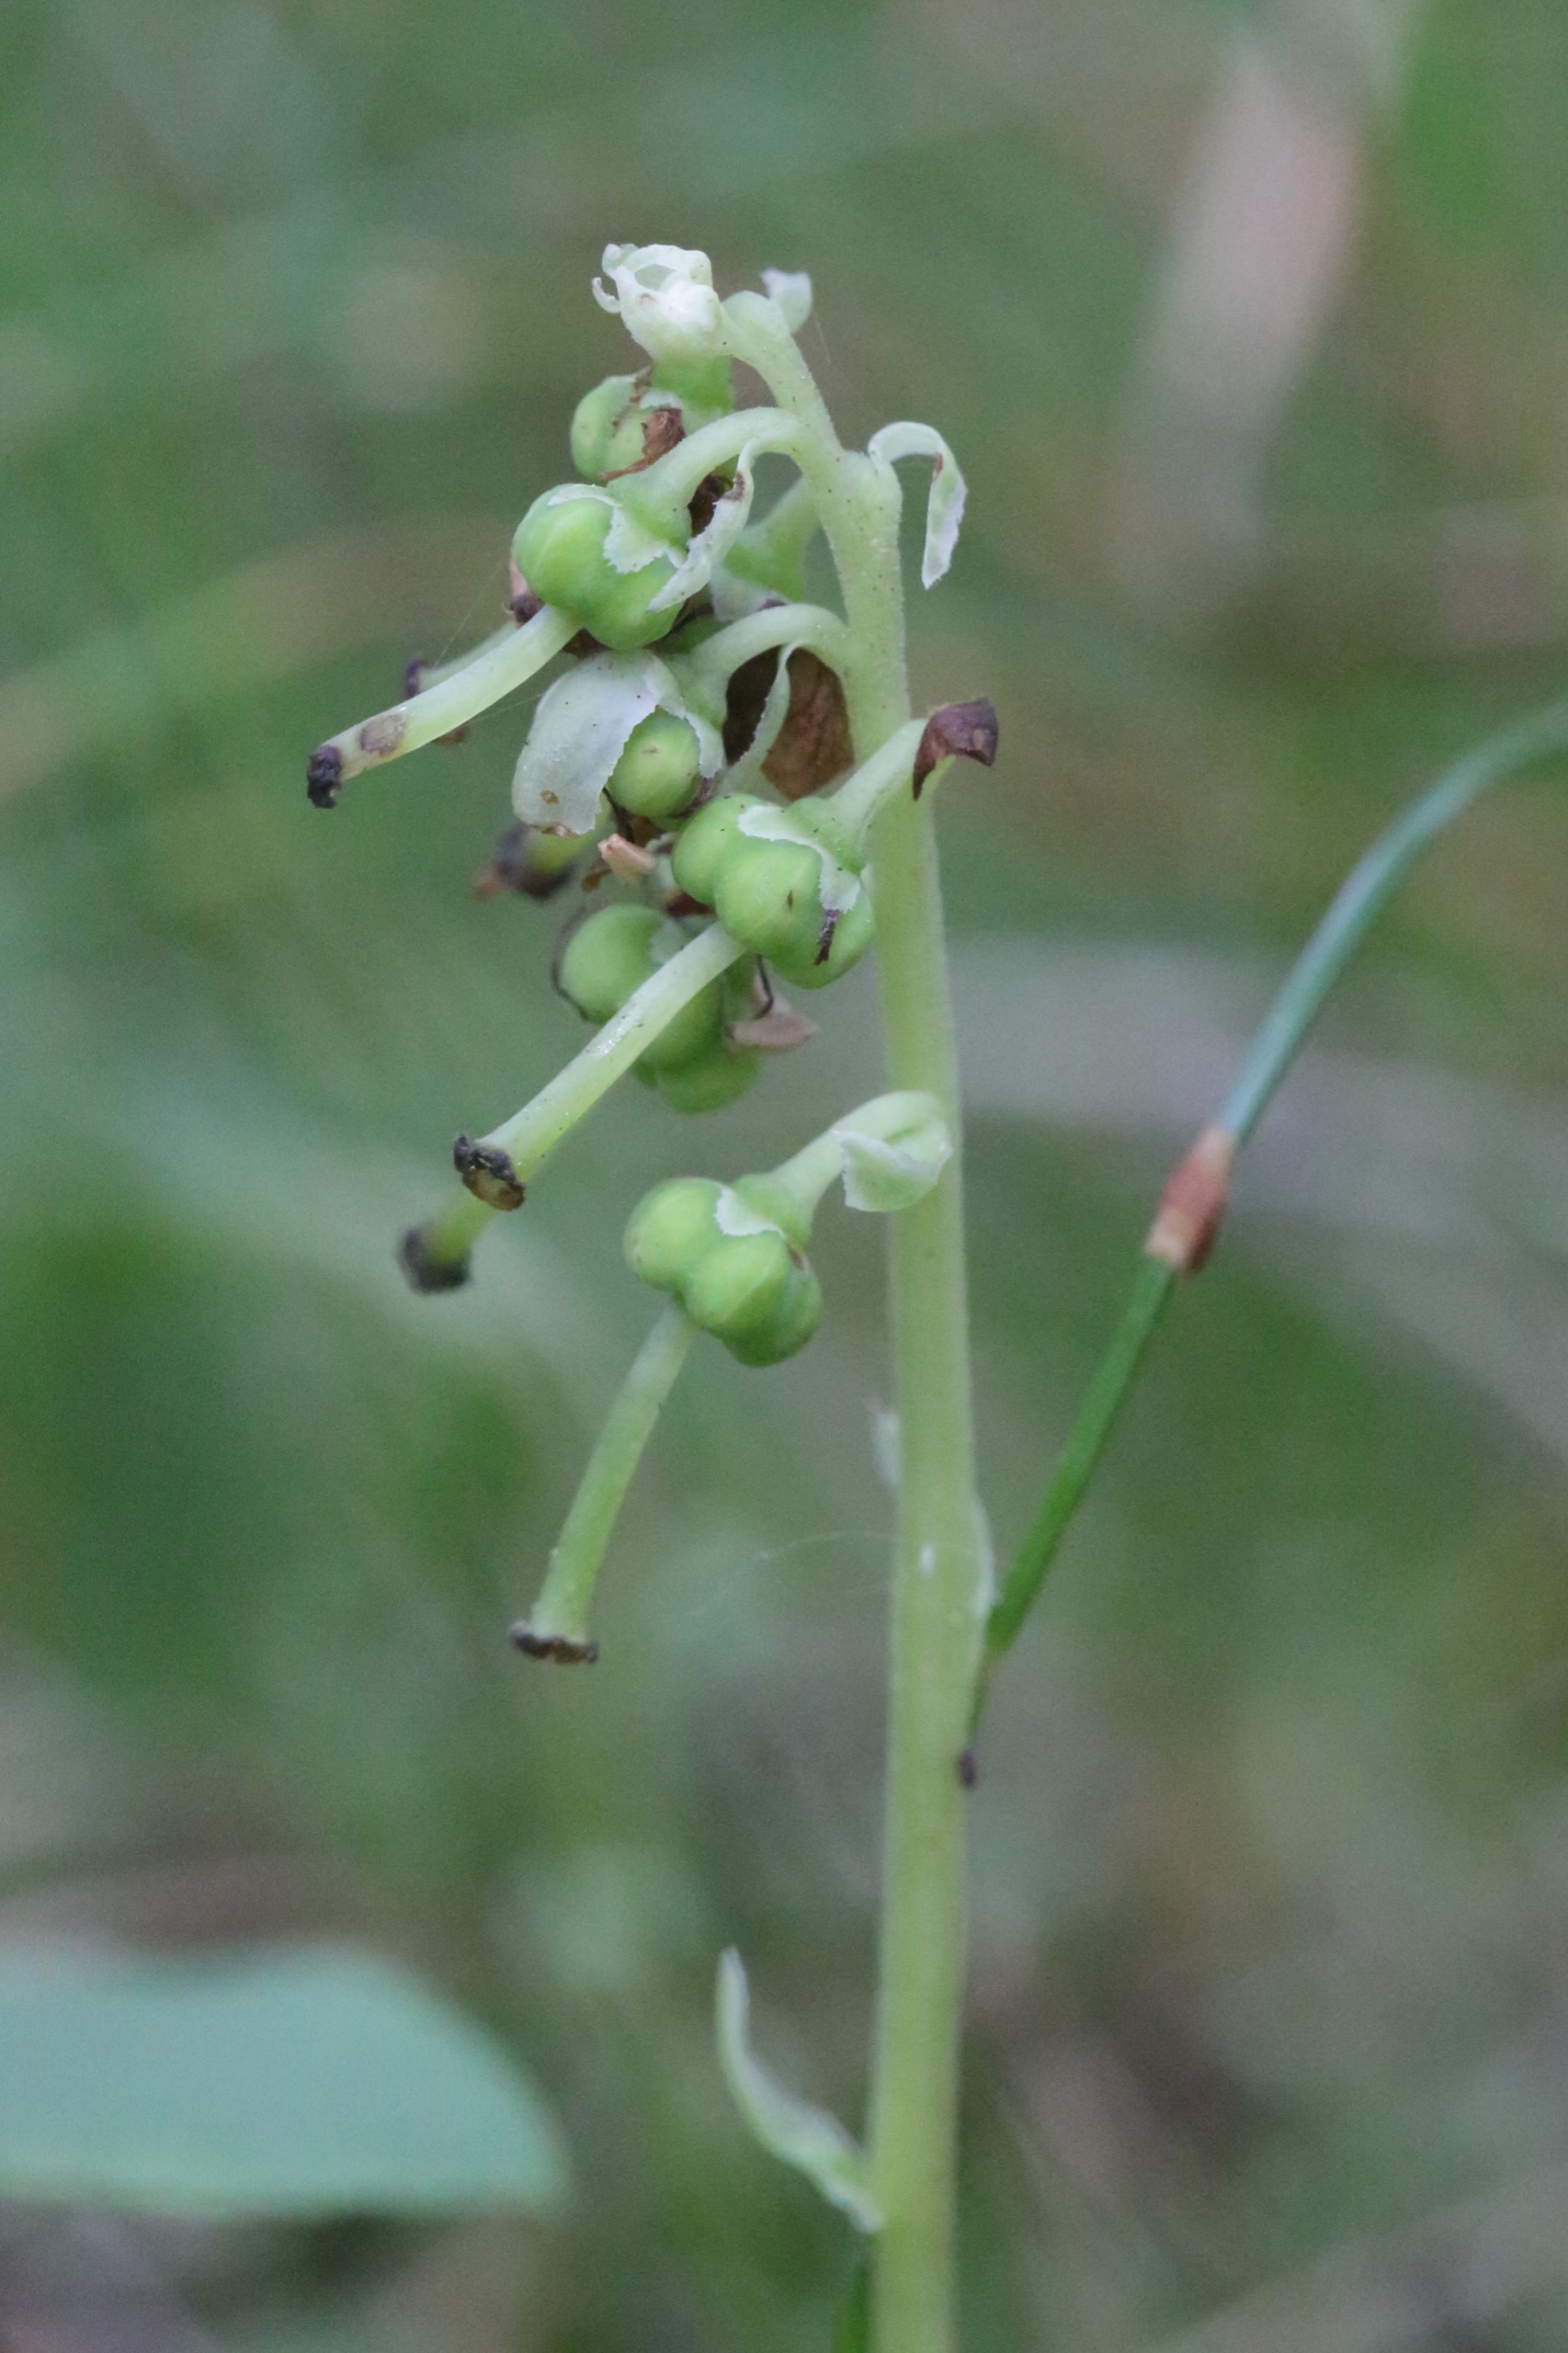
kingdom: Plantae
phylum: Tracheophyta
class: Magnoliopsida
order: Ericales
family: Ericaceae
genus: Orthilia
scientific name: Orthilia secunda
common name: Ensidig vintergrøn
